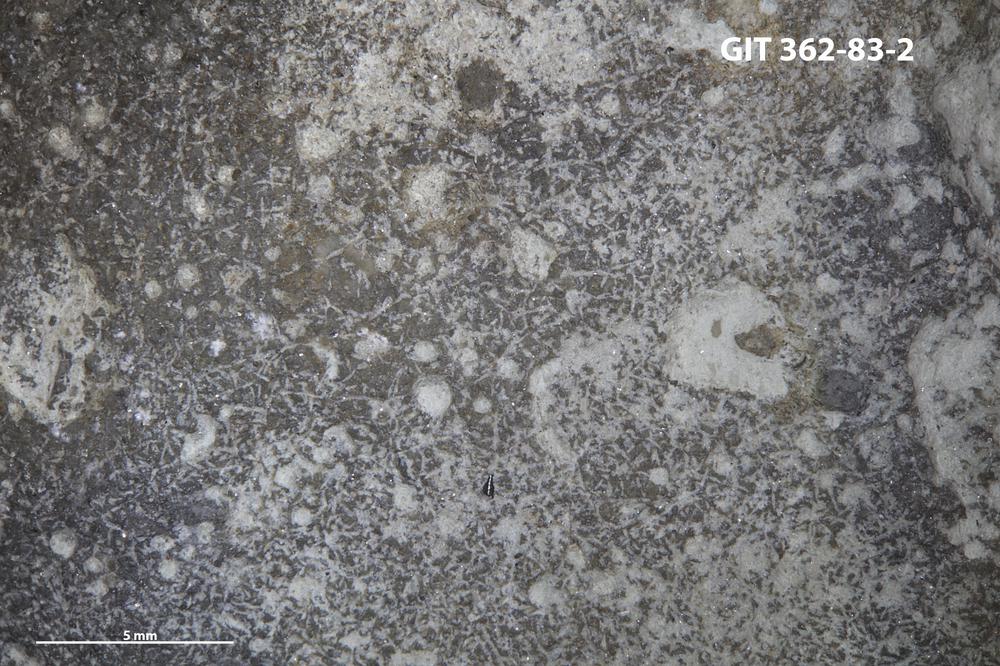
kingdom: Animalia
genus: Pinaceocladichnus
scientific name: Pinaceocladichnus
